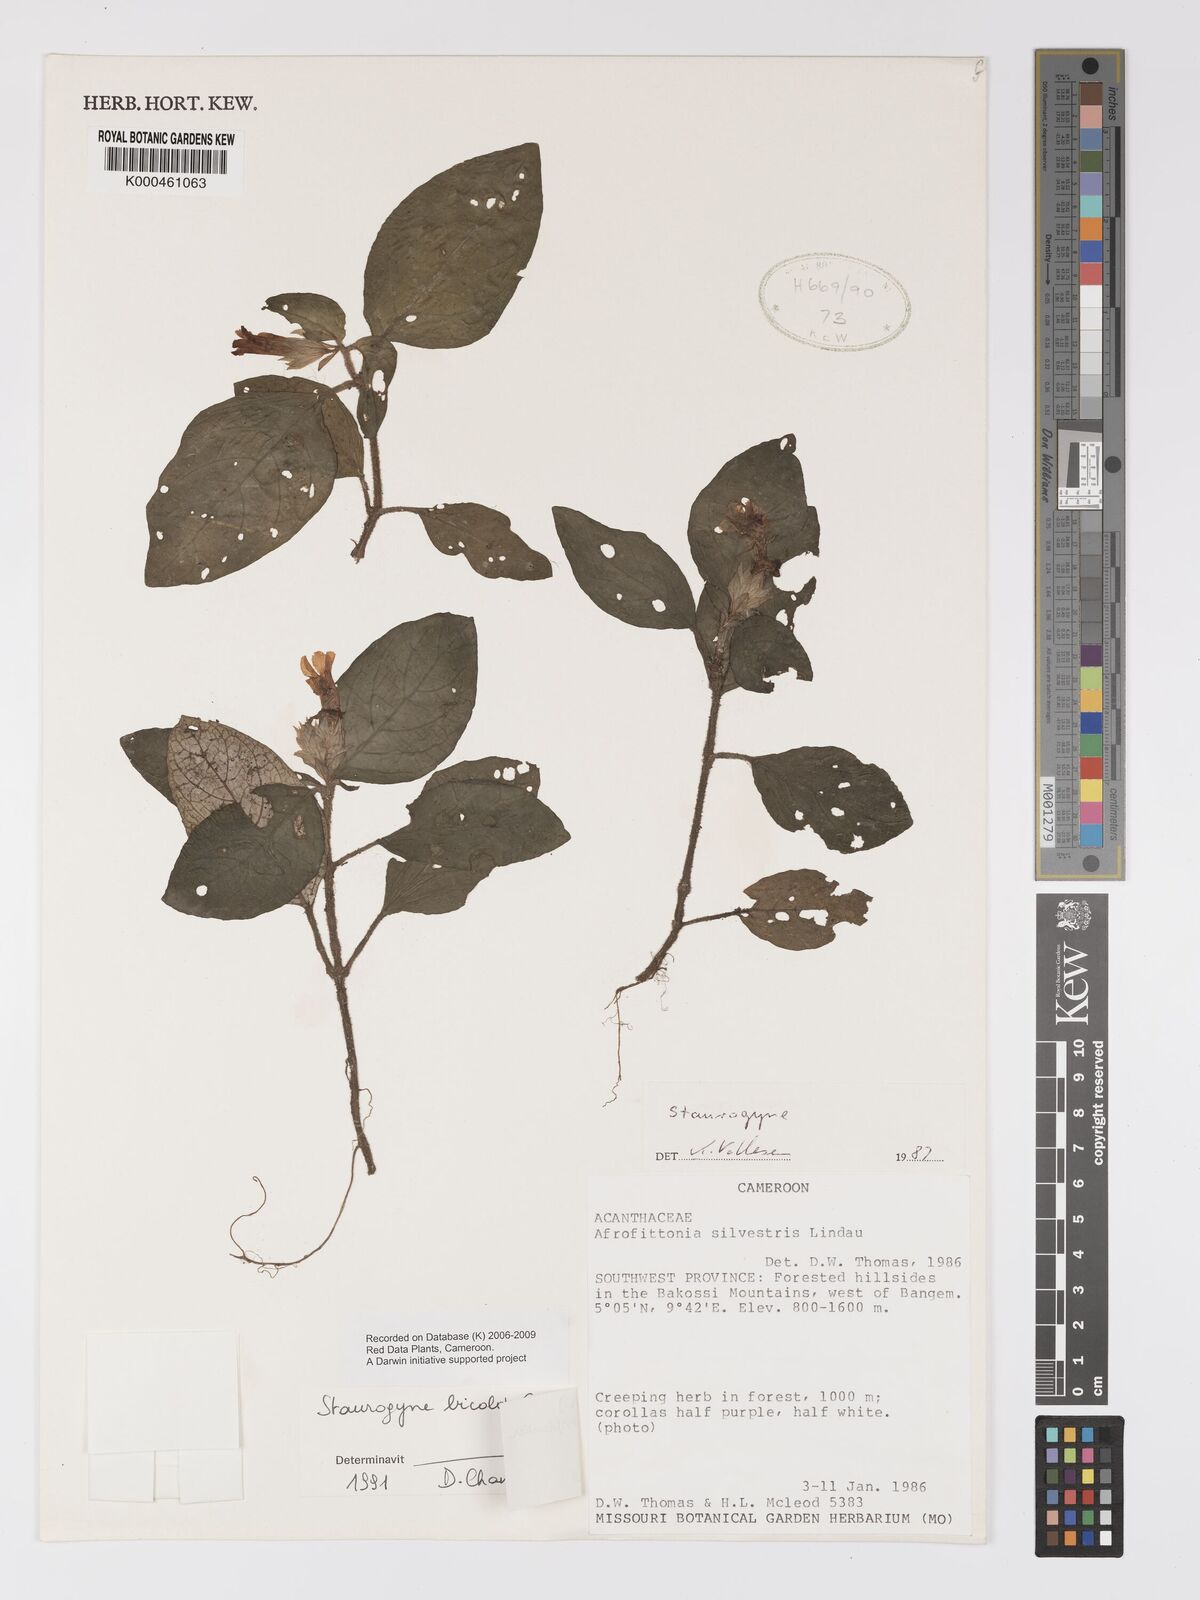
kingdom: Plantae
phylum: Tracheophyta
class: Magnoliopsida
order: Lamiales
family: Acanthaceae
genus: Staurogyne
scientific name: Staurogyne bicolor
